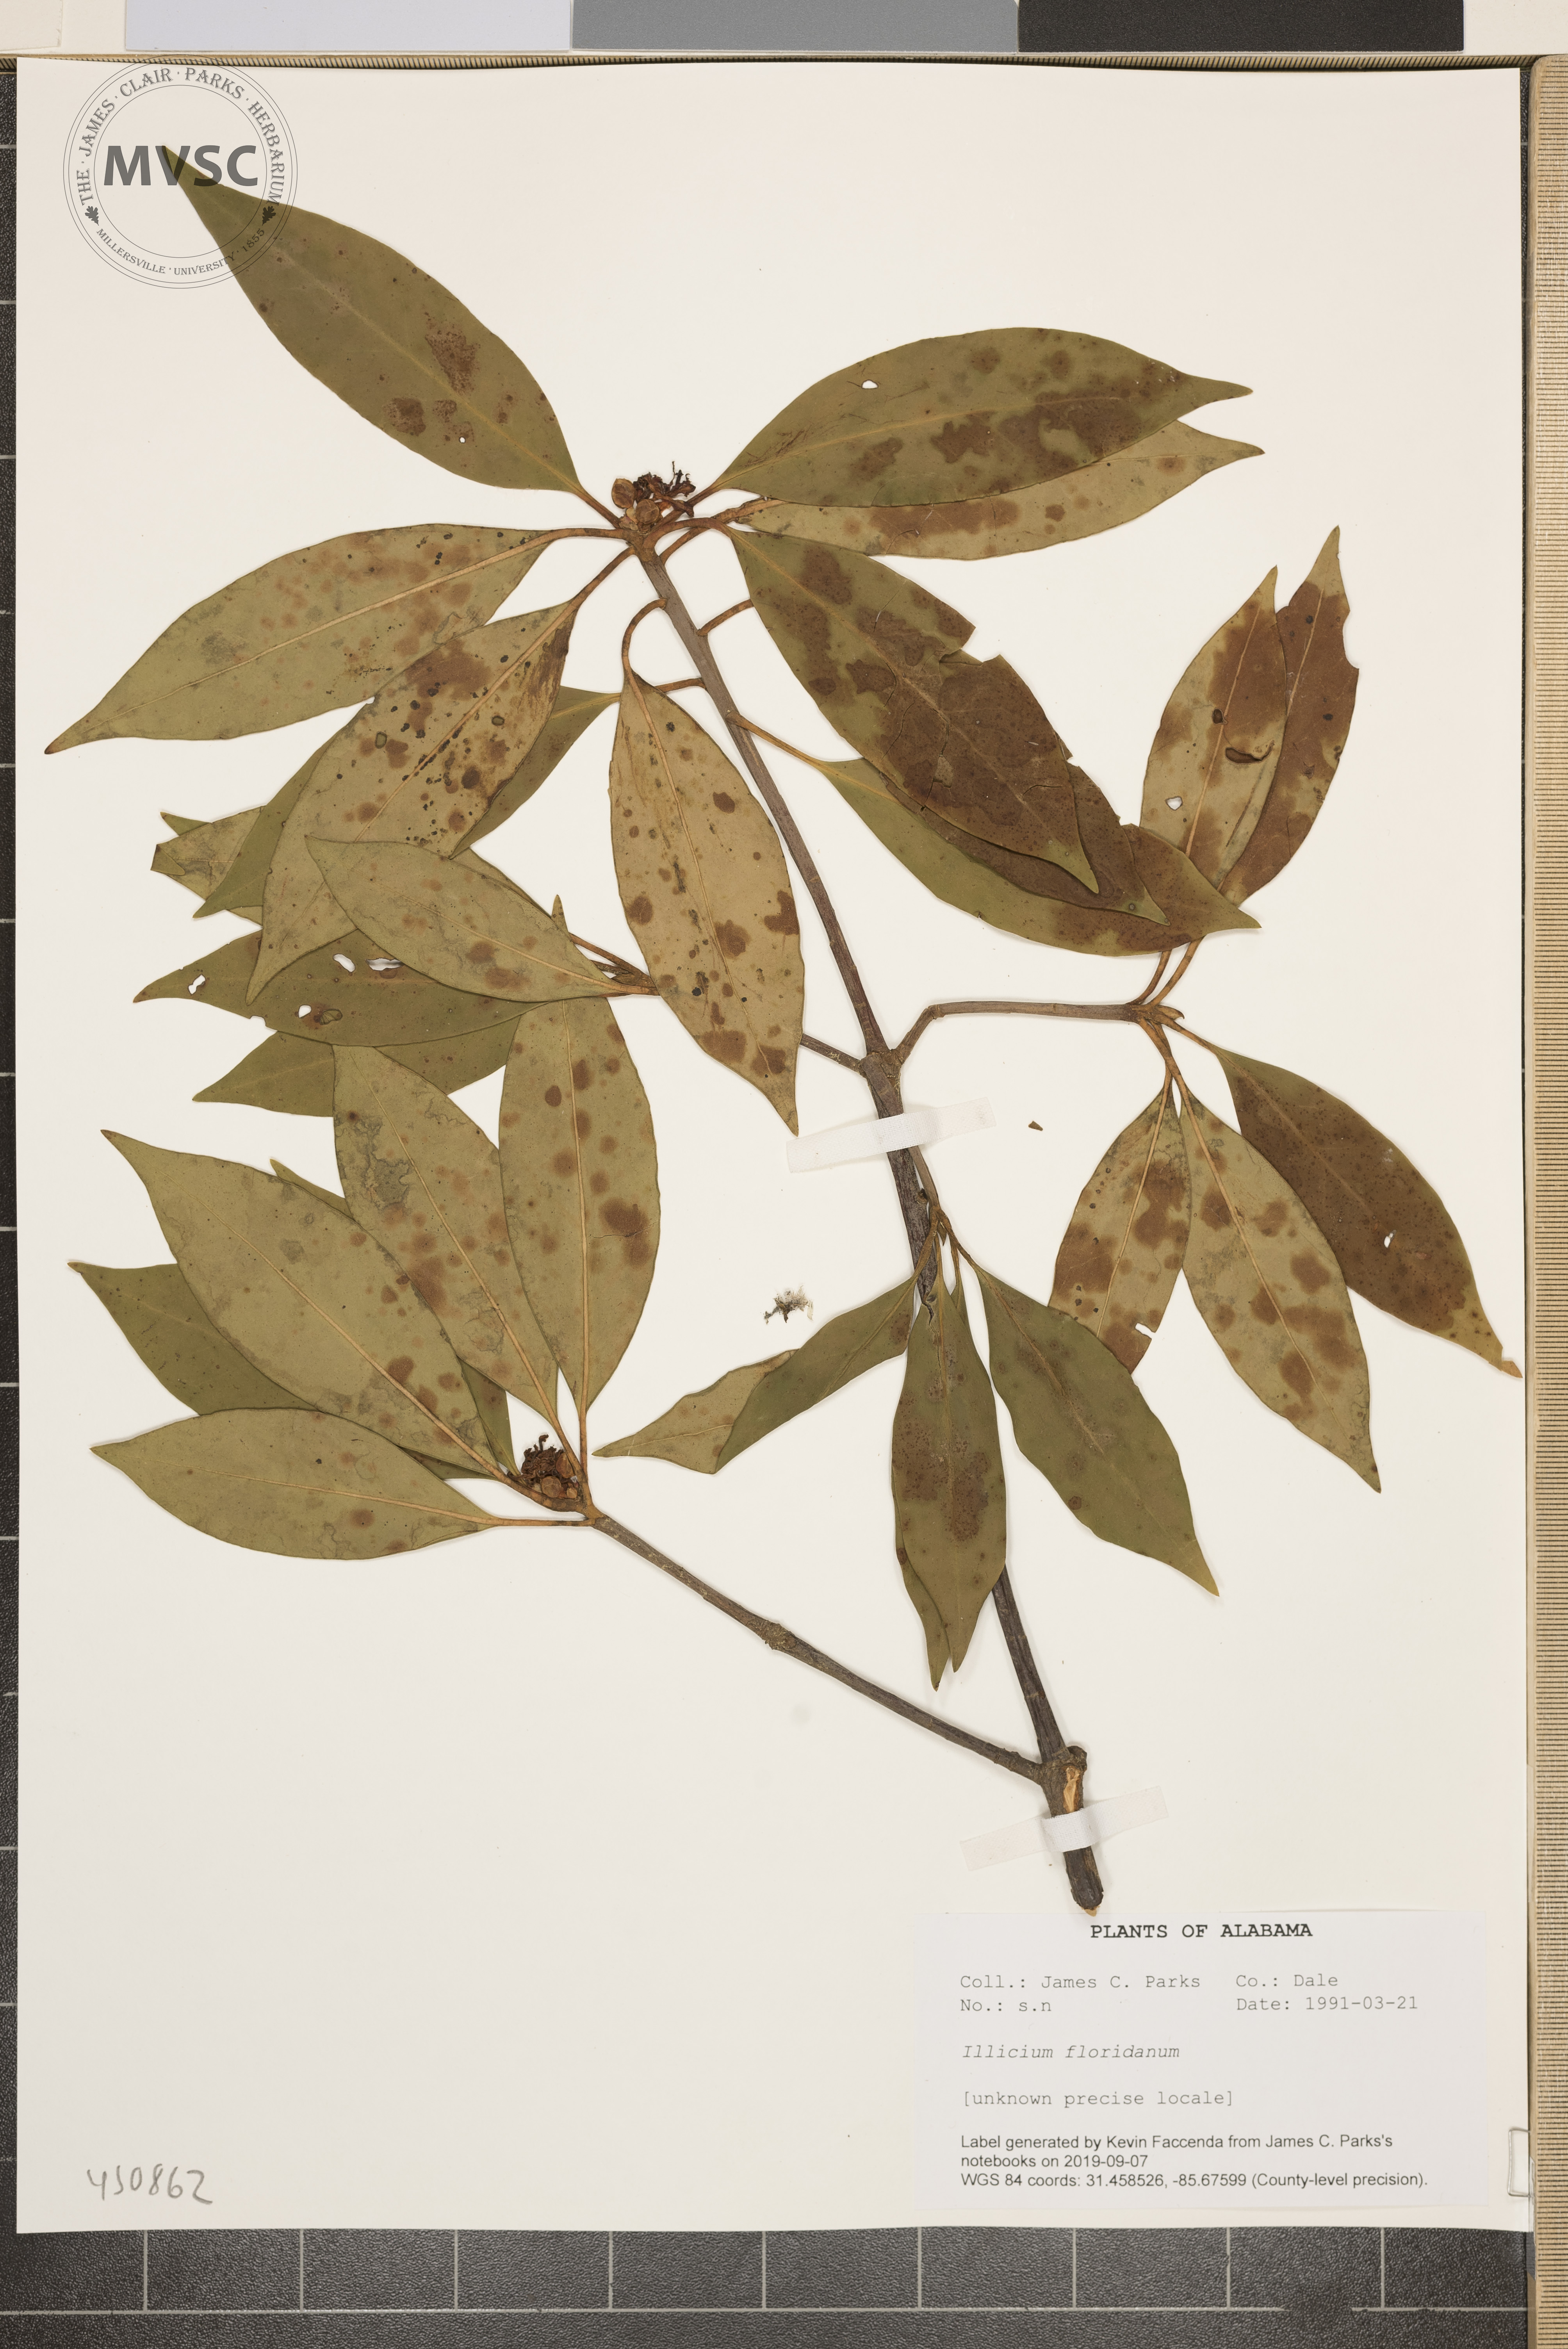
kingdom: Plantae
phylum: Tracheophyta
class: Magnoliopsida
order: Austrobaileyales
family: Schisandraceae
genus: Illicium
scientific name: Illicium floridanum
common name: Florida anisetree
